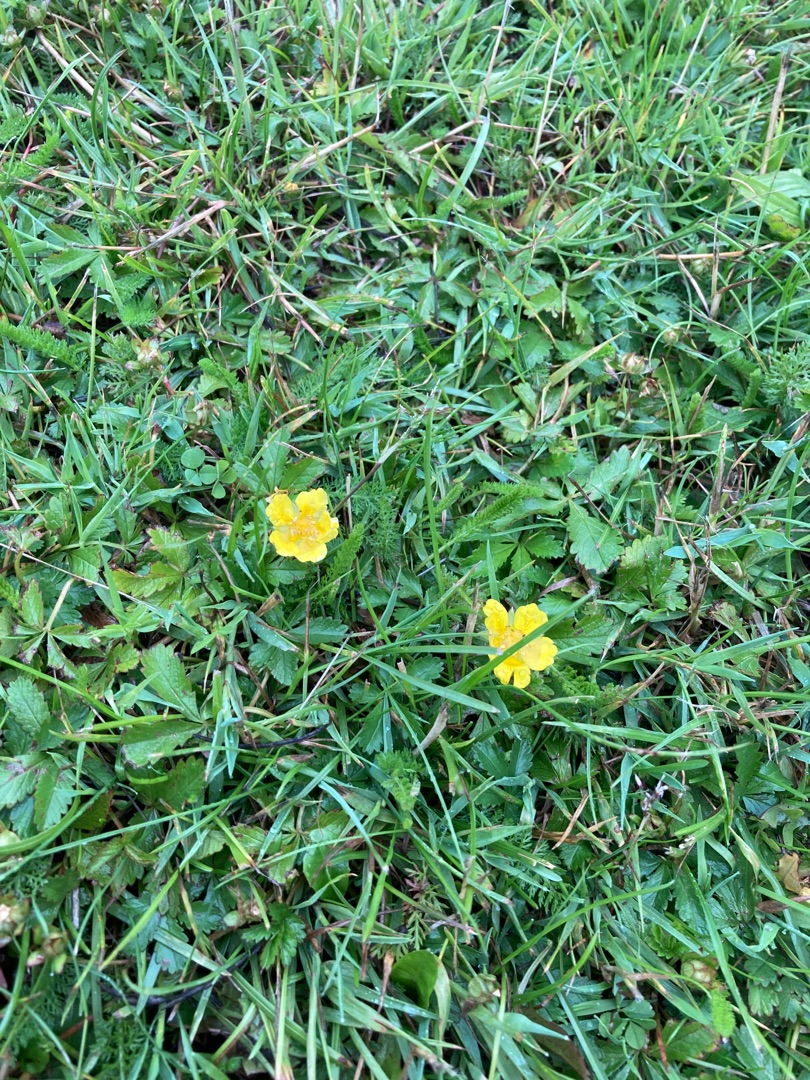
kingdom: Plantae
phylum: Tracheophyta
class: Magnoliopsida
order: Rosales
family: Rosaceae
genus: Potentilla
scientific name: Potentilla reptans
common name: Krybende potentil
